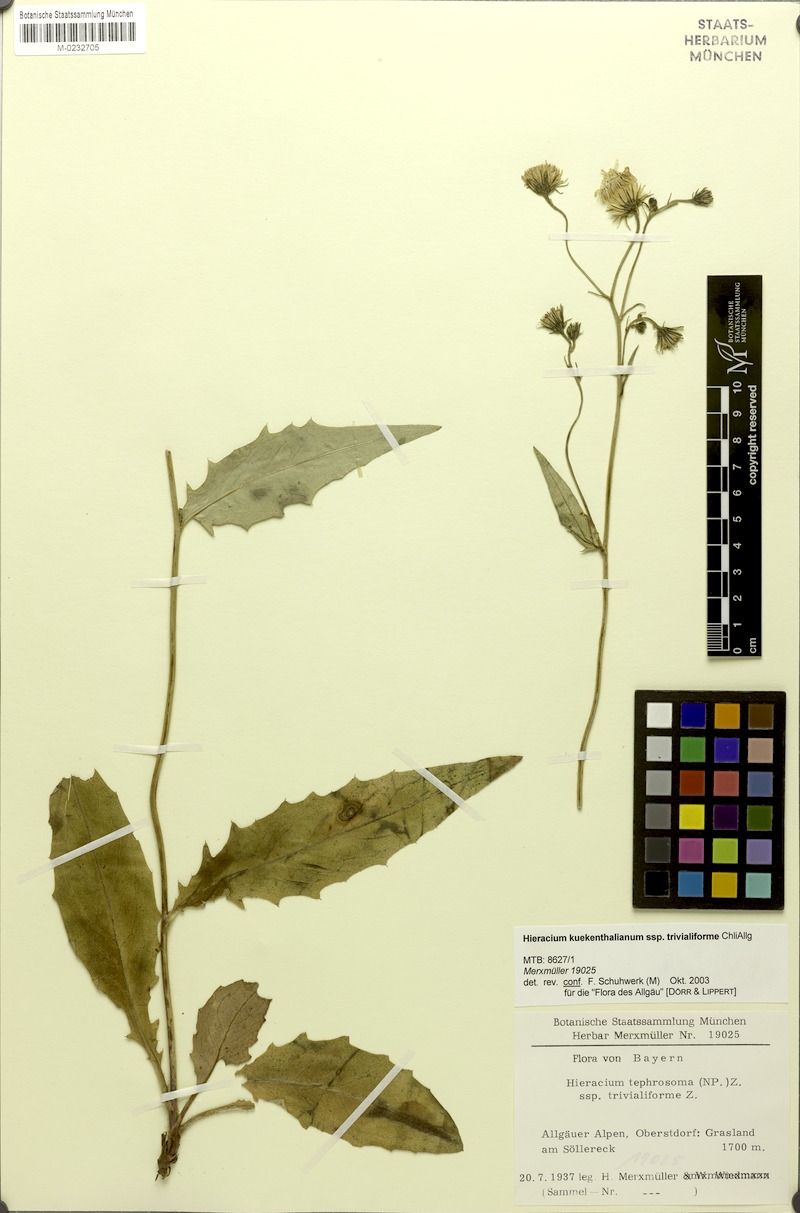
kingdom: Plantae
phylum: Tracheophyta
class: Magnoliopsida
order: Asterales
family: Asteraceae
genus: Hieracium
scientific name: Hieracium kuekenthalianum
